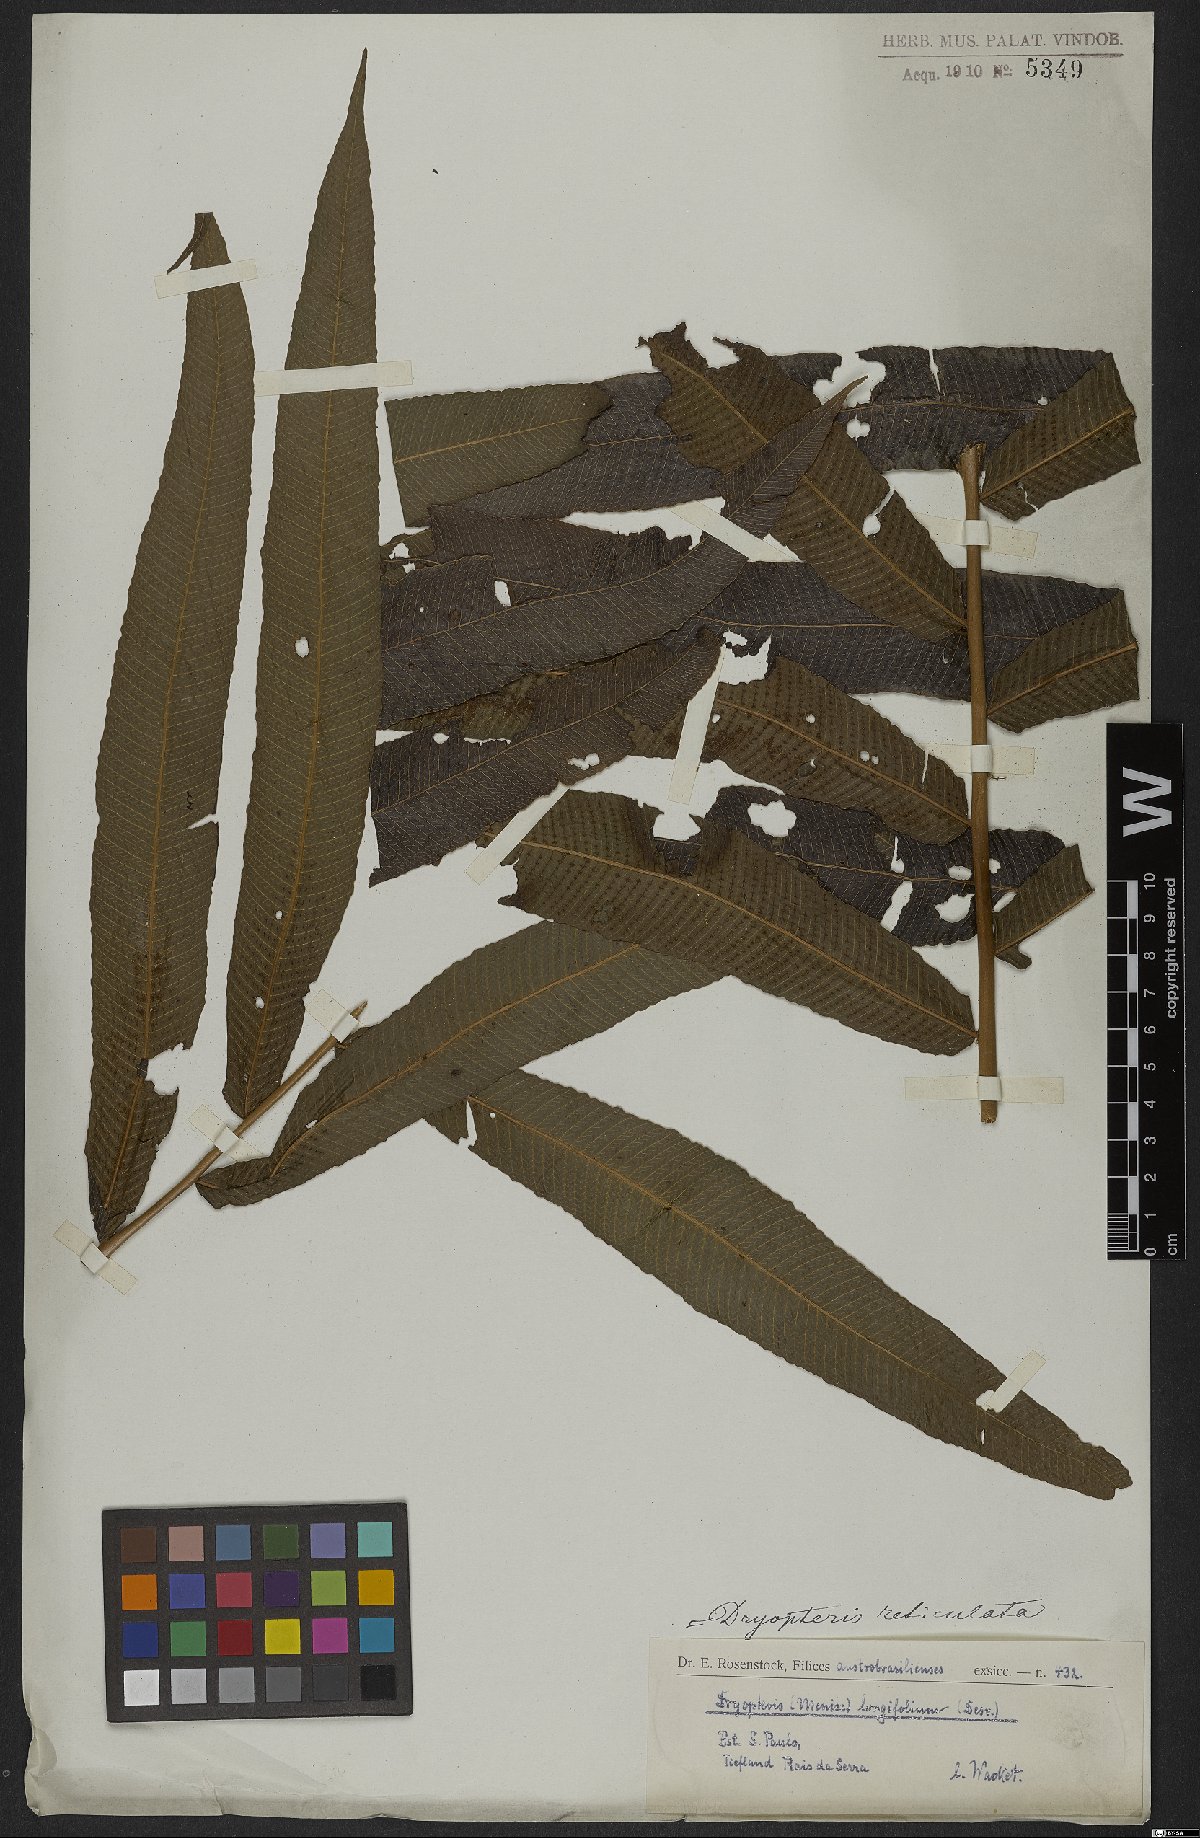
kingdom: Plantae
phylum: Tracheophyta
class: Polypodiopsida
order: Polypodiales
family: Thelypteridaceae
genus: Meniscium
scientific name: Meniscium reticulatum
